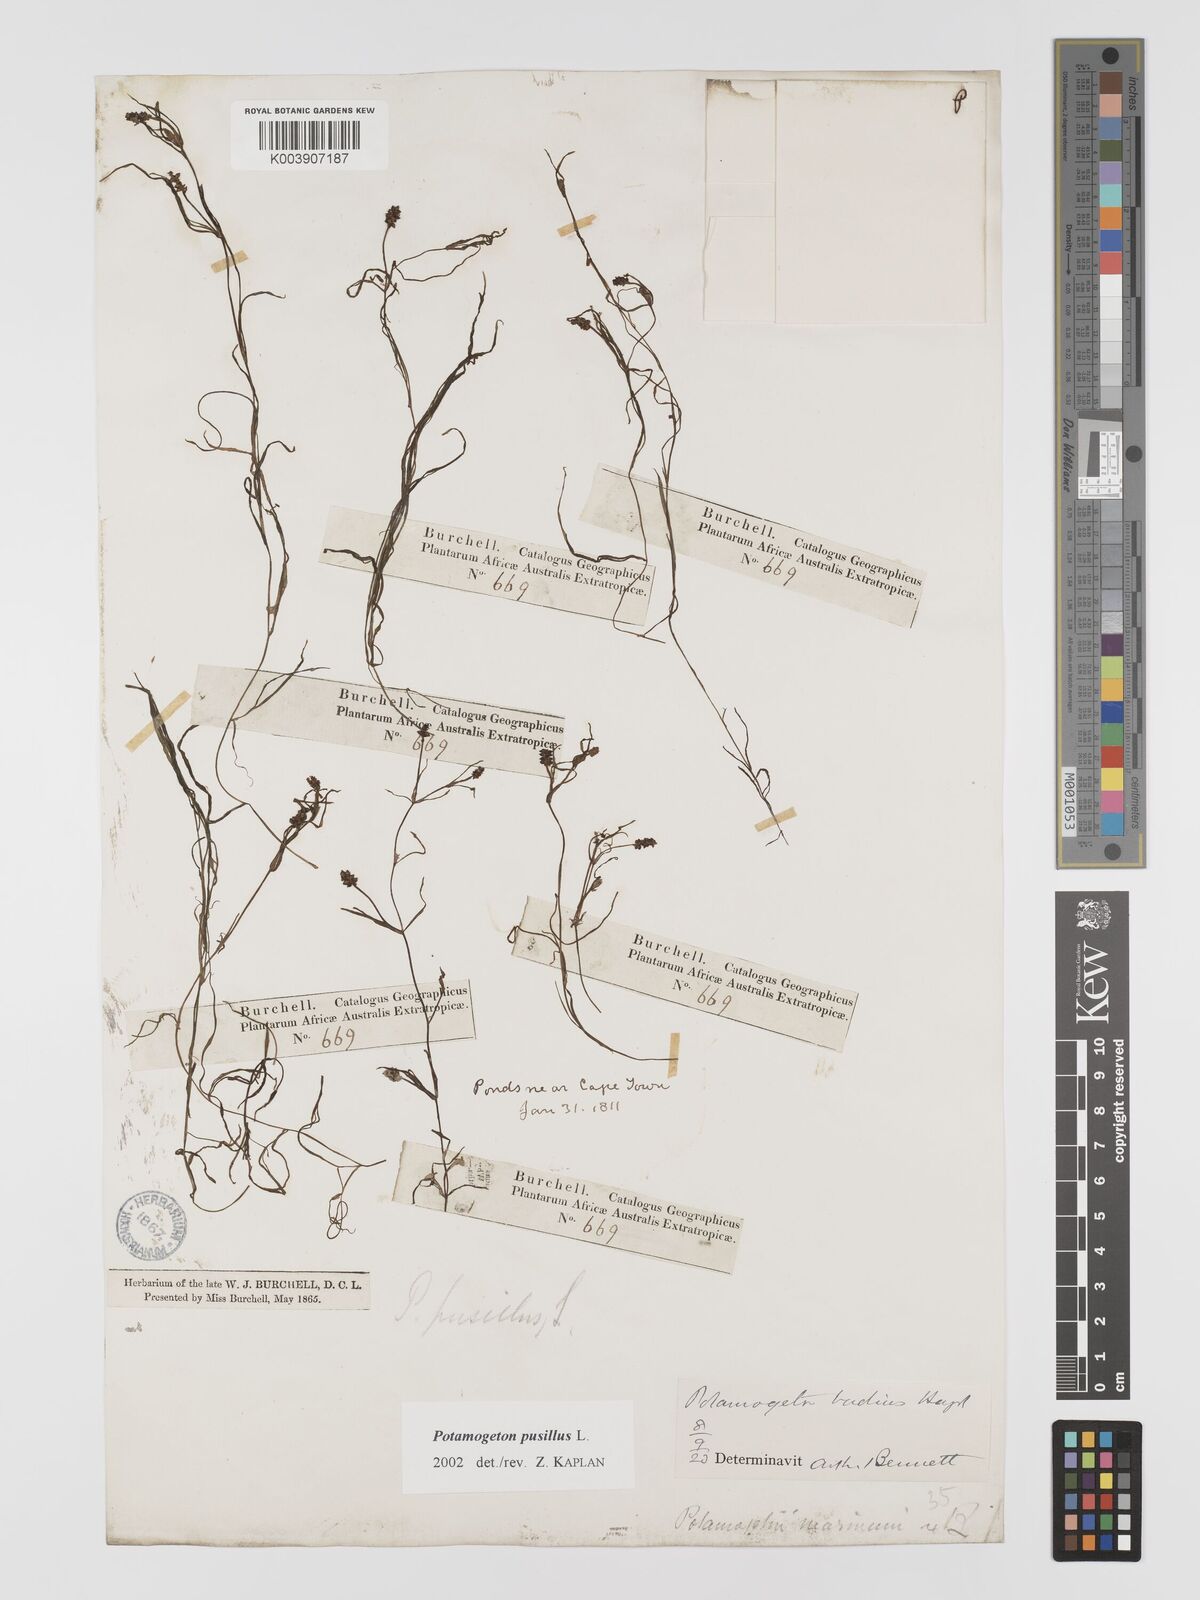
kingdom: Plantae
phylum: Tracheophyta
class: Liliopsida
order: Alismatales
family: Potamogetonaceae
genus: Potamogeton
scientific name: Potamogeton pusillus
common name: Lesser pondweed
